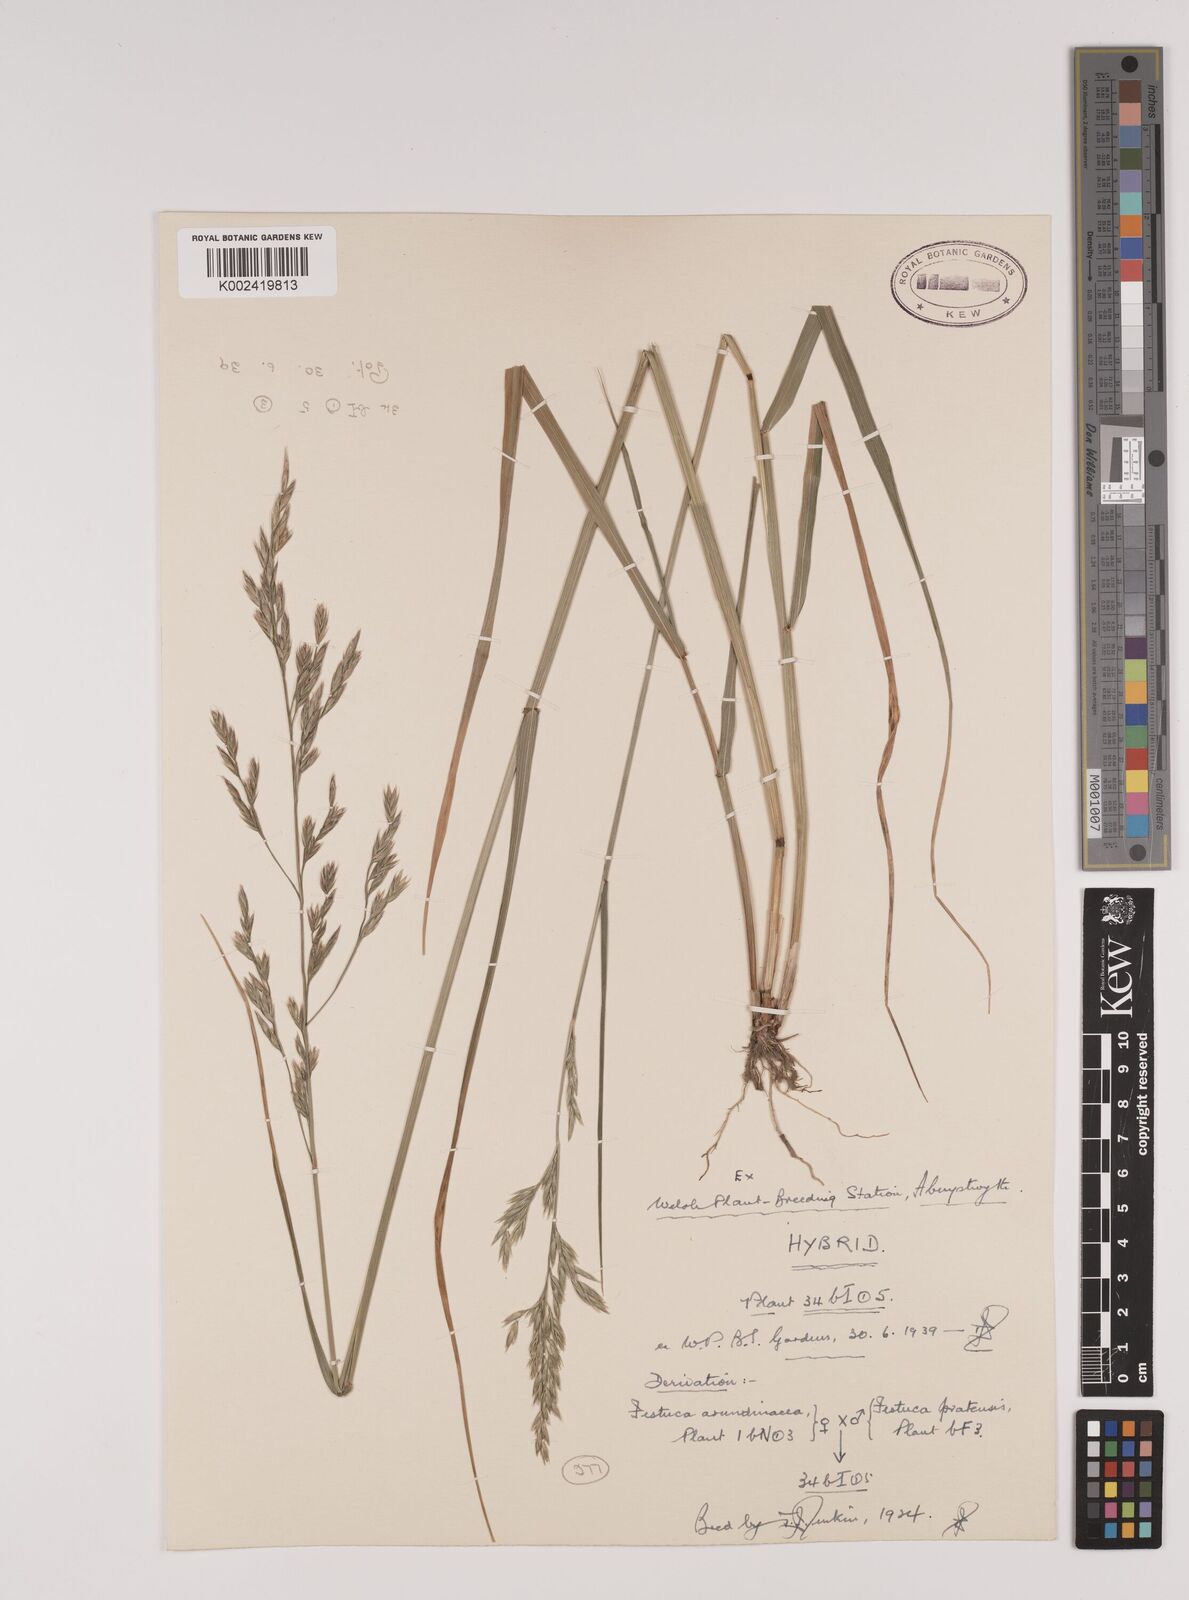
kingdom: Plantae
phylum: Tracheophyta
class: Liliopsida
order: Poales
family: Poaceae
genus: Festuca
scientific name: Festuca rubra
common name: Red fescue
